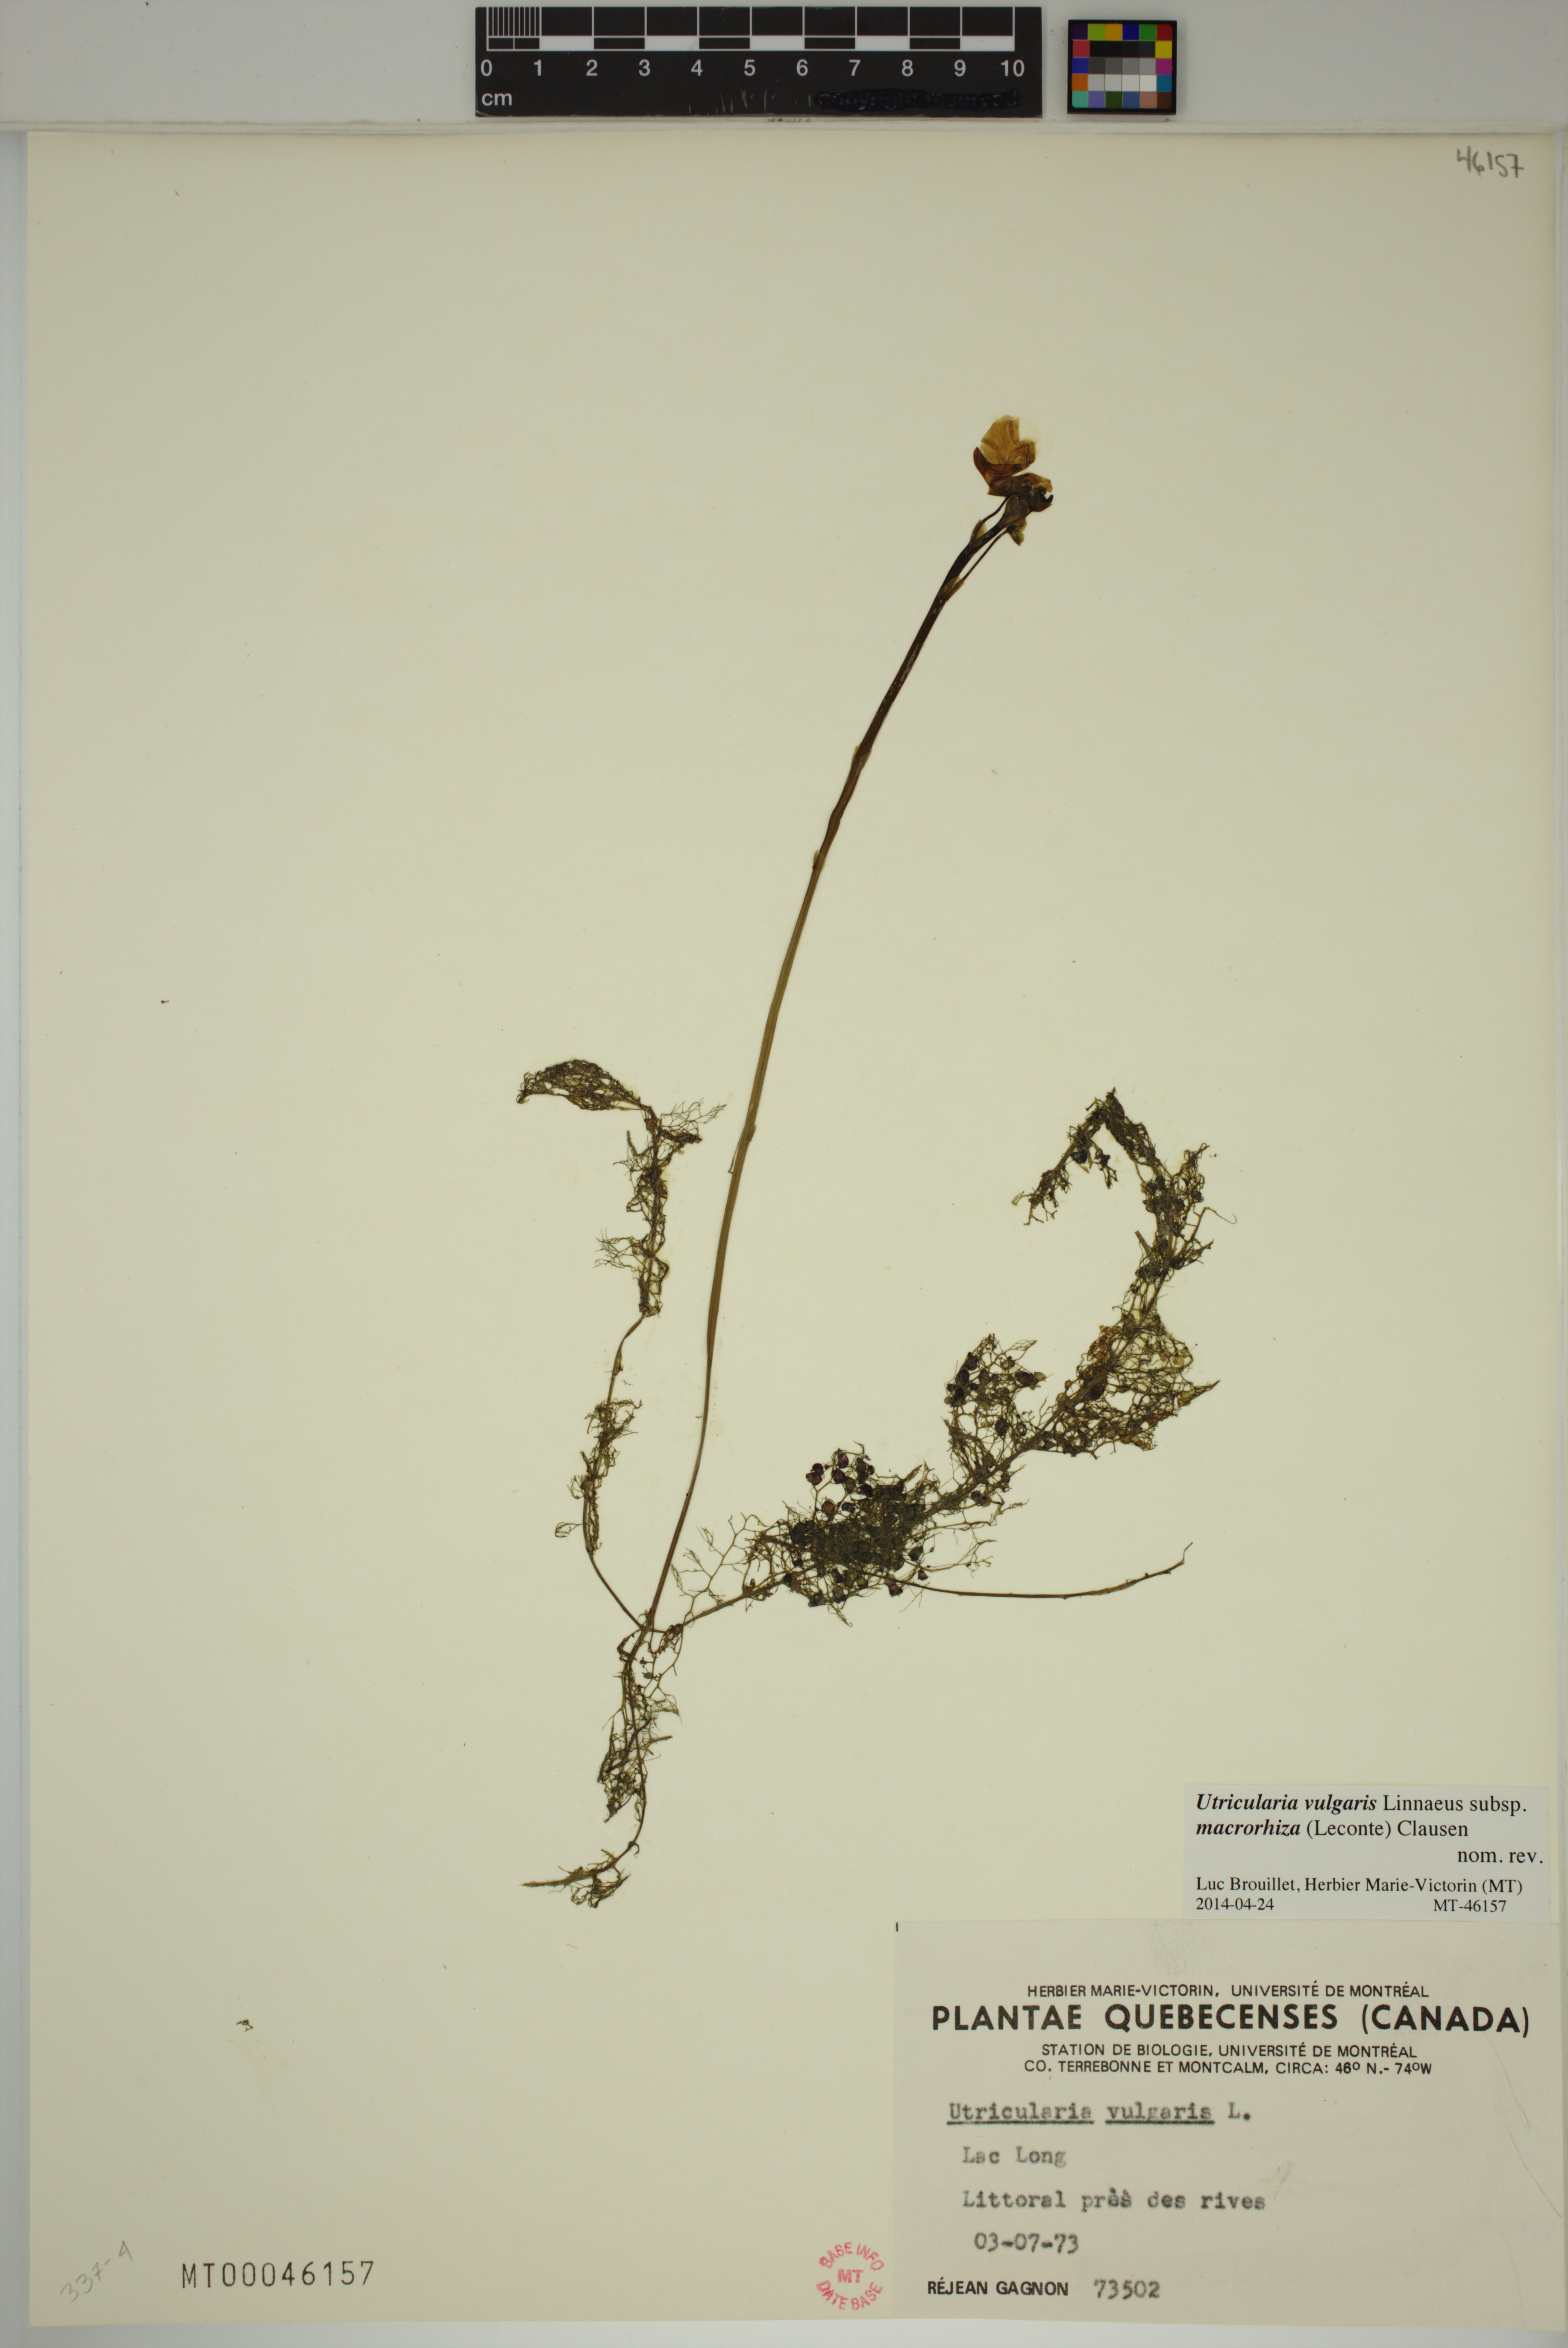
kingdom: Plantae
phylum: Tracheophyta
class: Magnoliopsida
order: Lamiales
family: Lentibulariaceae
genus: Utricularia
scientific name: Utricularia macrorhiza
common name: Common bladderwort
